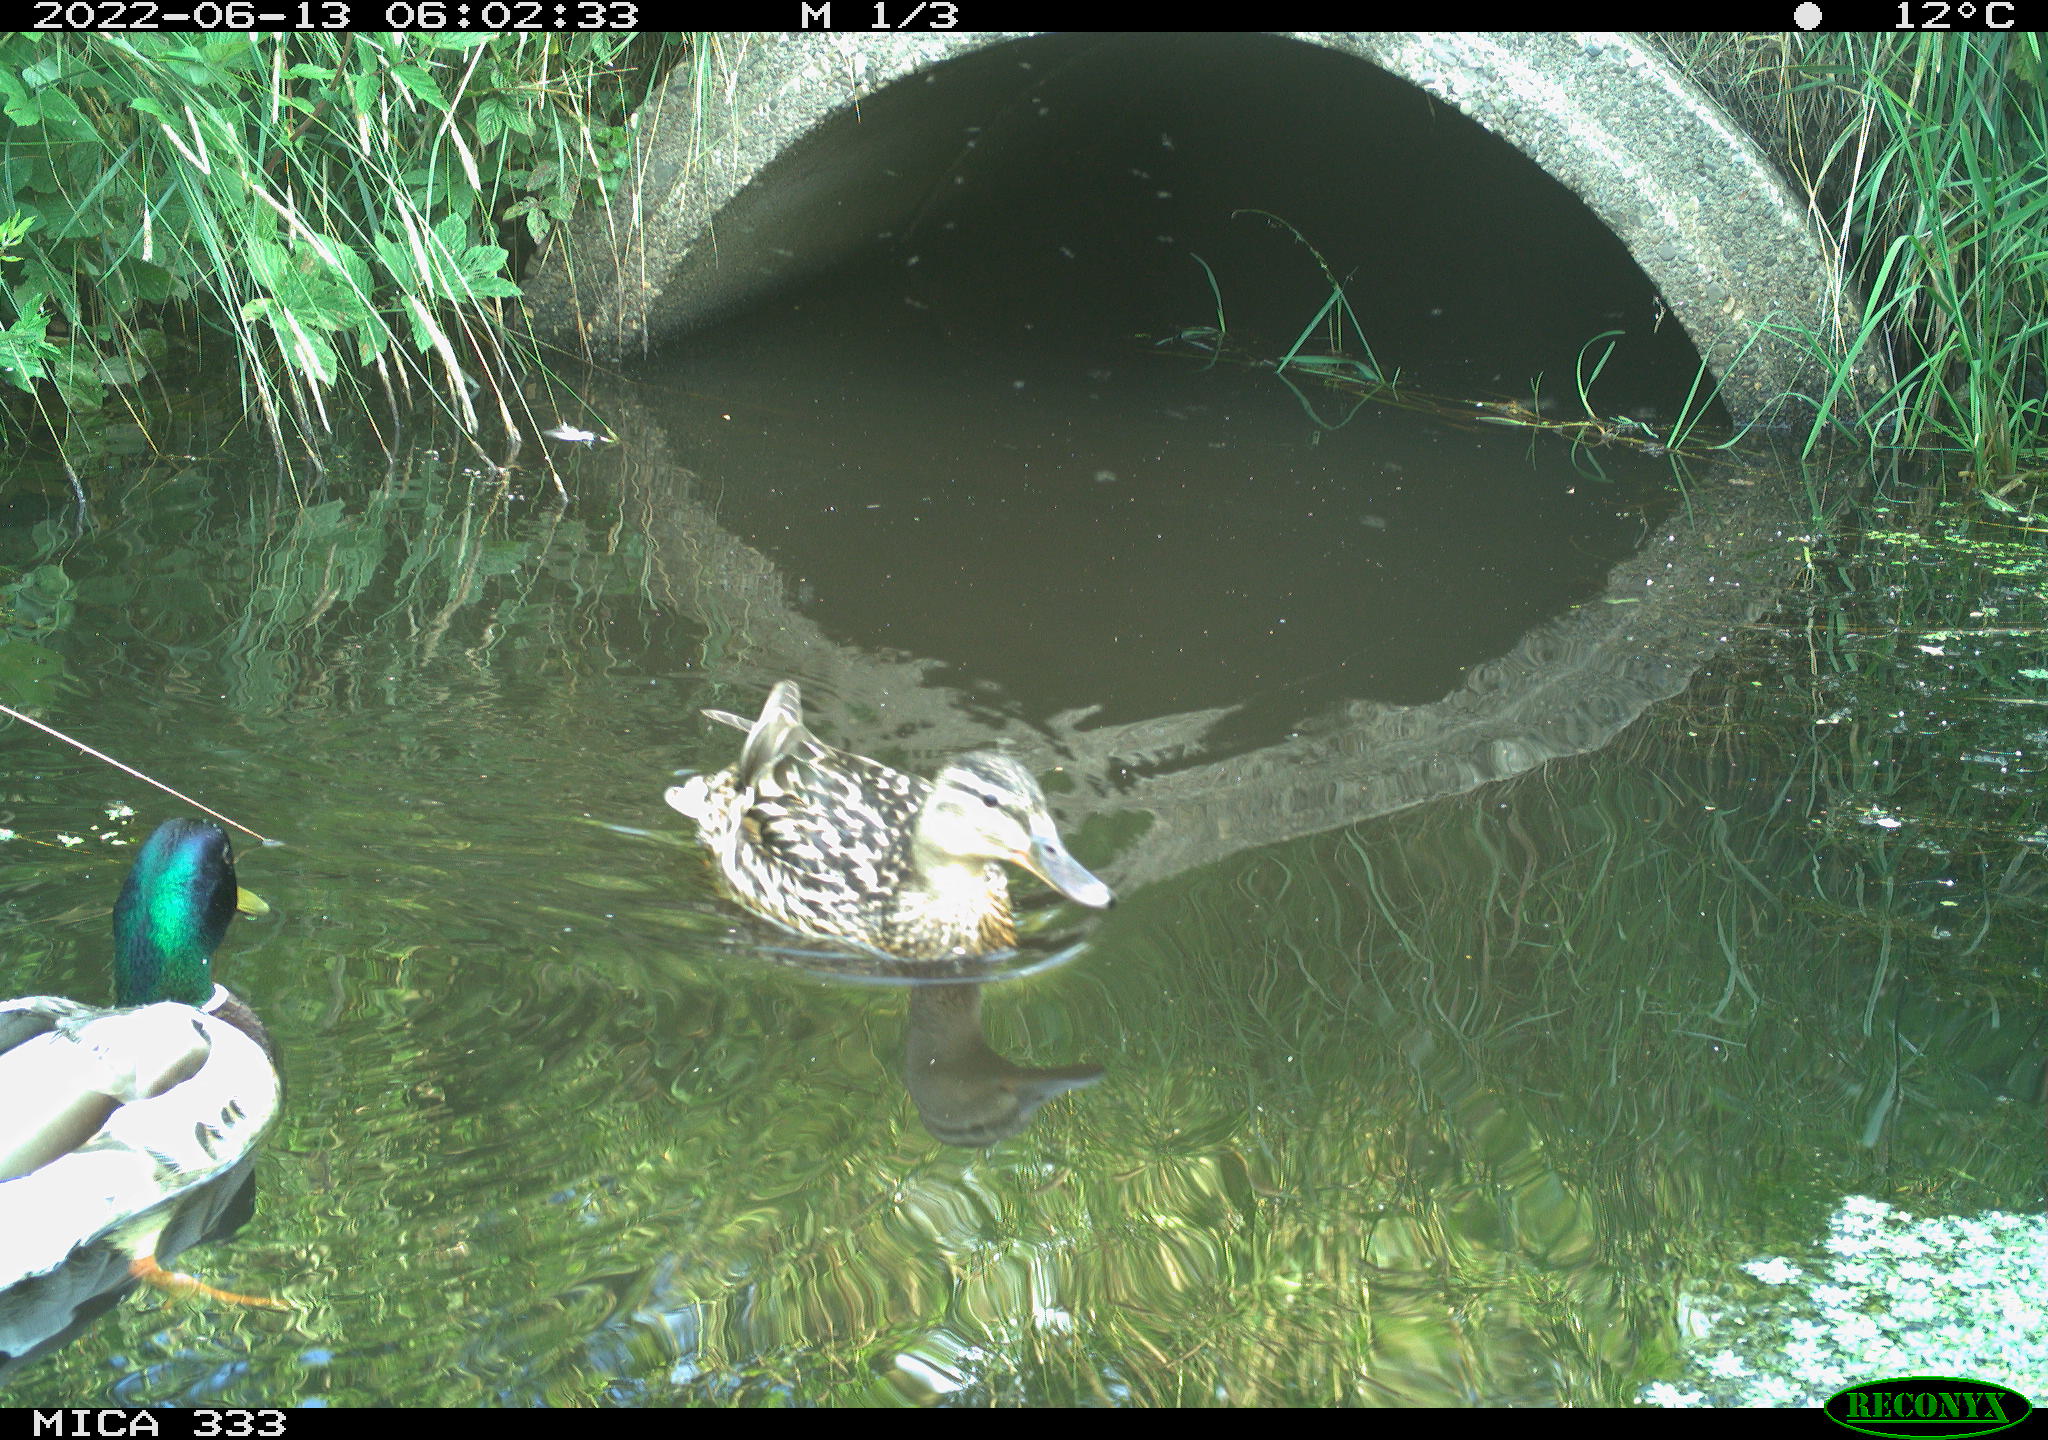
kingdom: Animalia
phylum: Chordata
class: Aves
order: Anseriformes
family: Anatidae
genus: Anas
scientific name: Anas platyrhynchos
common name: Mallard
